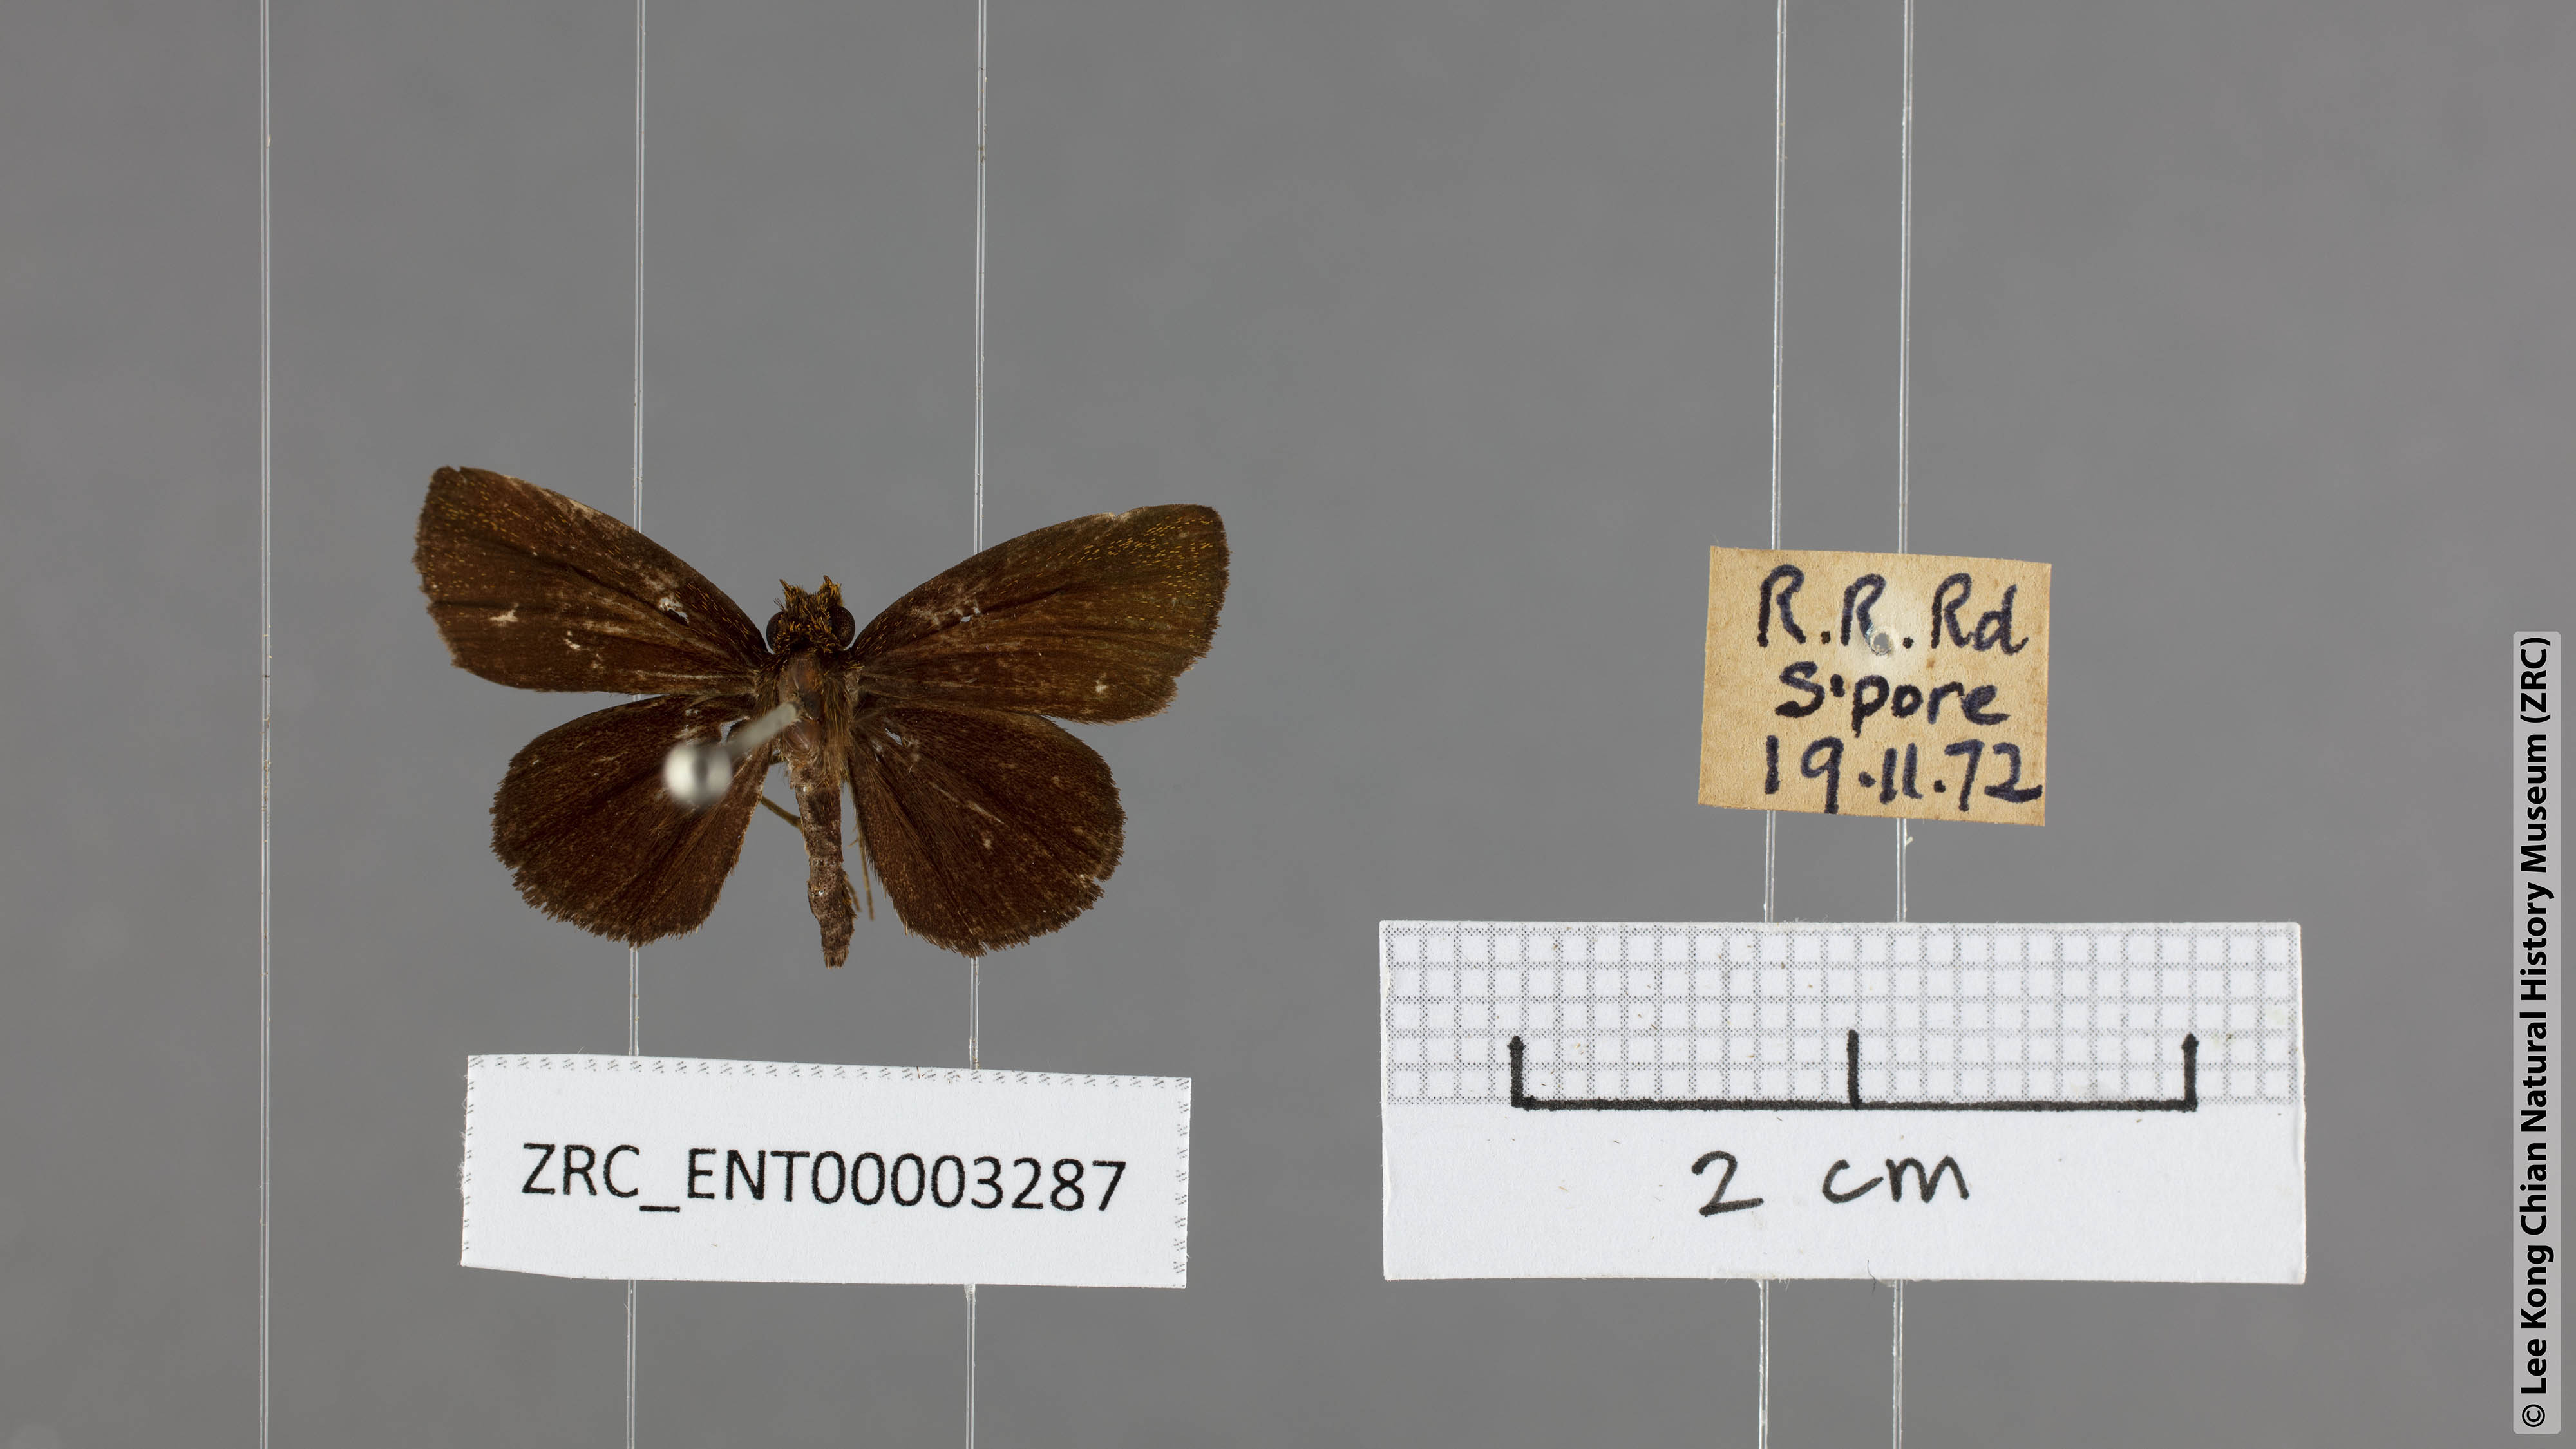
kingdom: Animalia
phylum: Arthropoda
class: Insecta
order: Lepidoptera
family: Hesperiidae
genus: Iambrix
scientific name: Iambrix stellifer
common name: Starry bob
